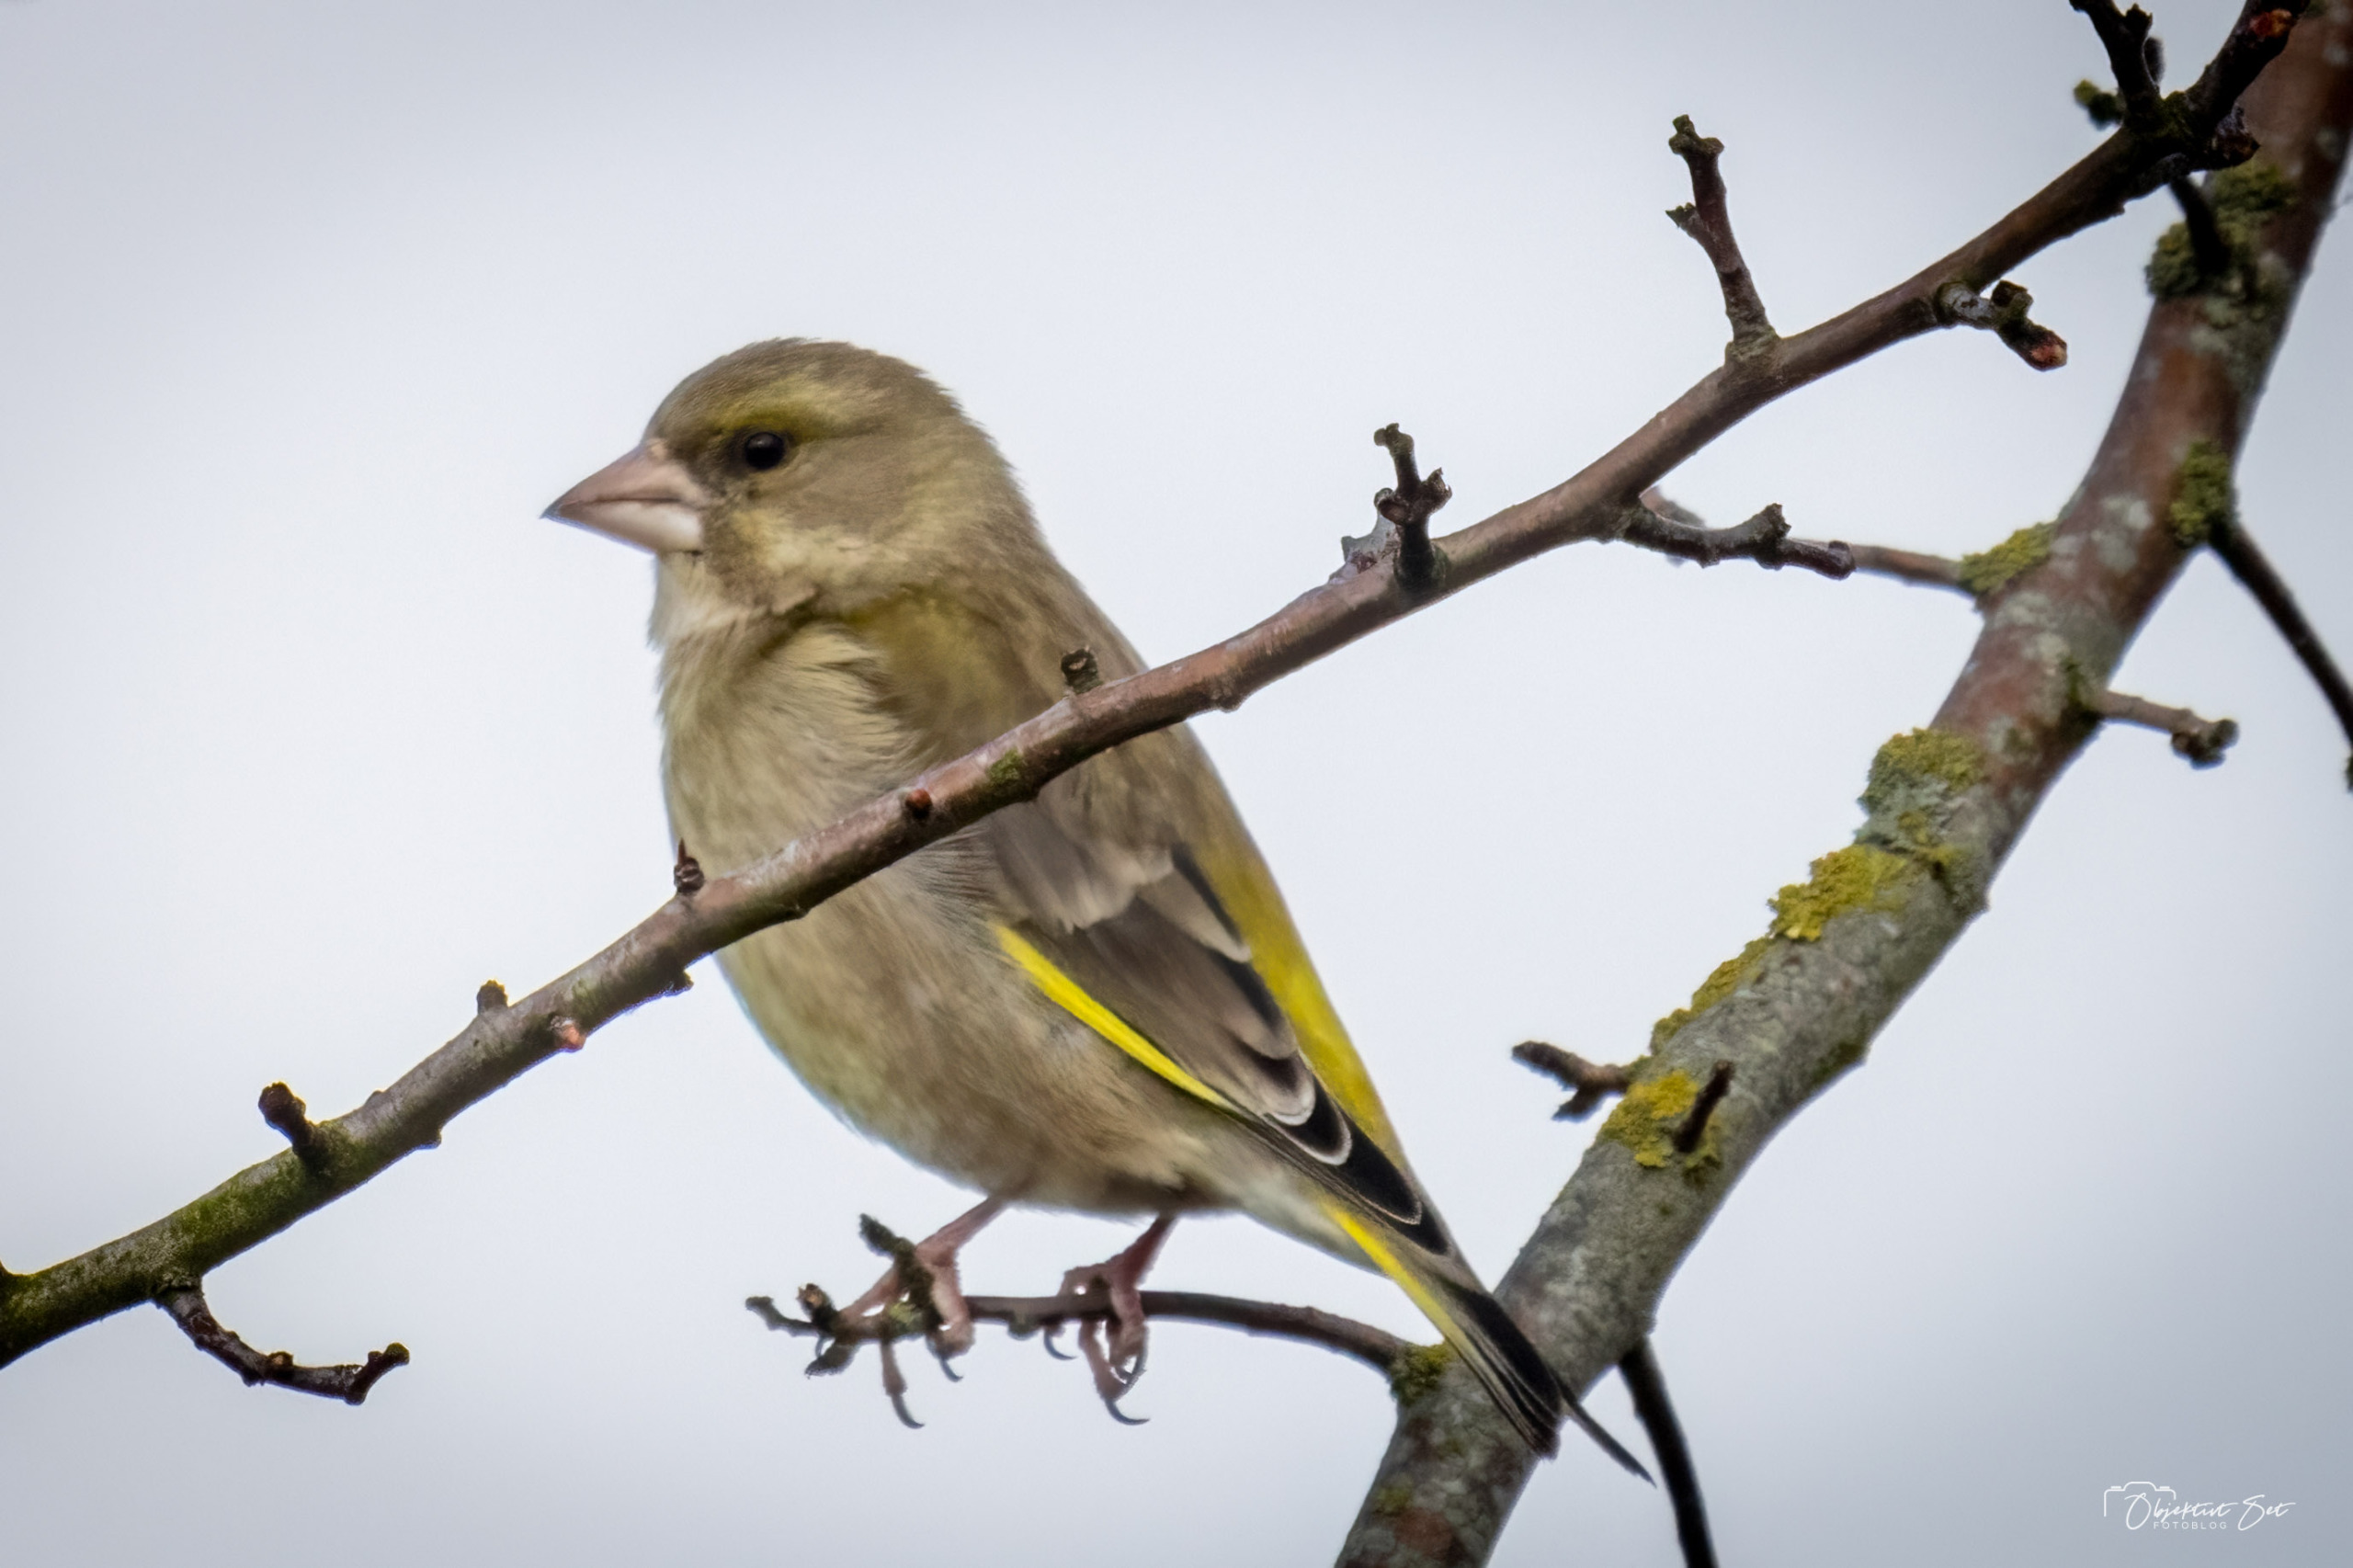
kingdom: Plantae
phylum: Tracheophyta
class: Liliopsida
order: Poales
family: Poaceae
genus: Chloris
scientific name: Chloris chloris
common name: Grønirisk
